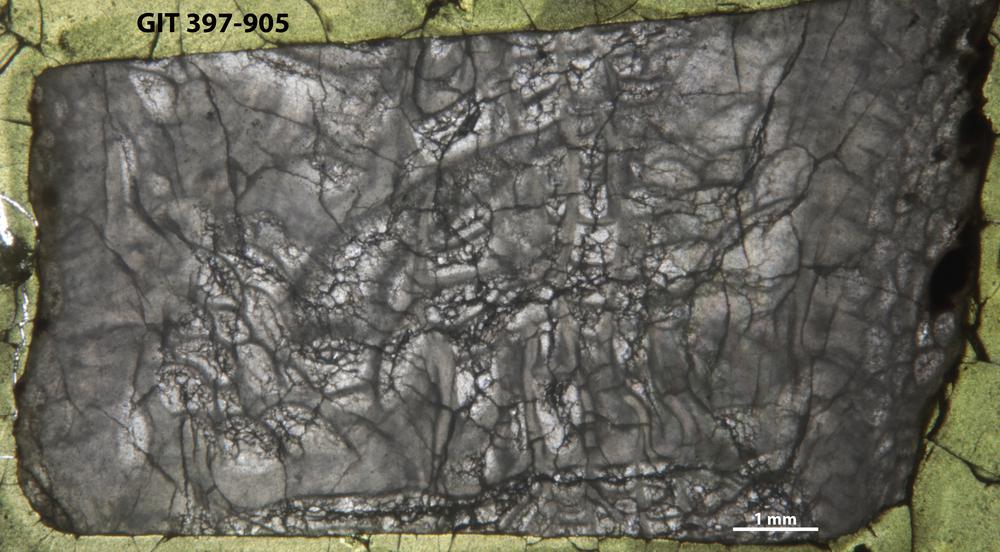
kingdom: Animalia
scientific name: Animalia
